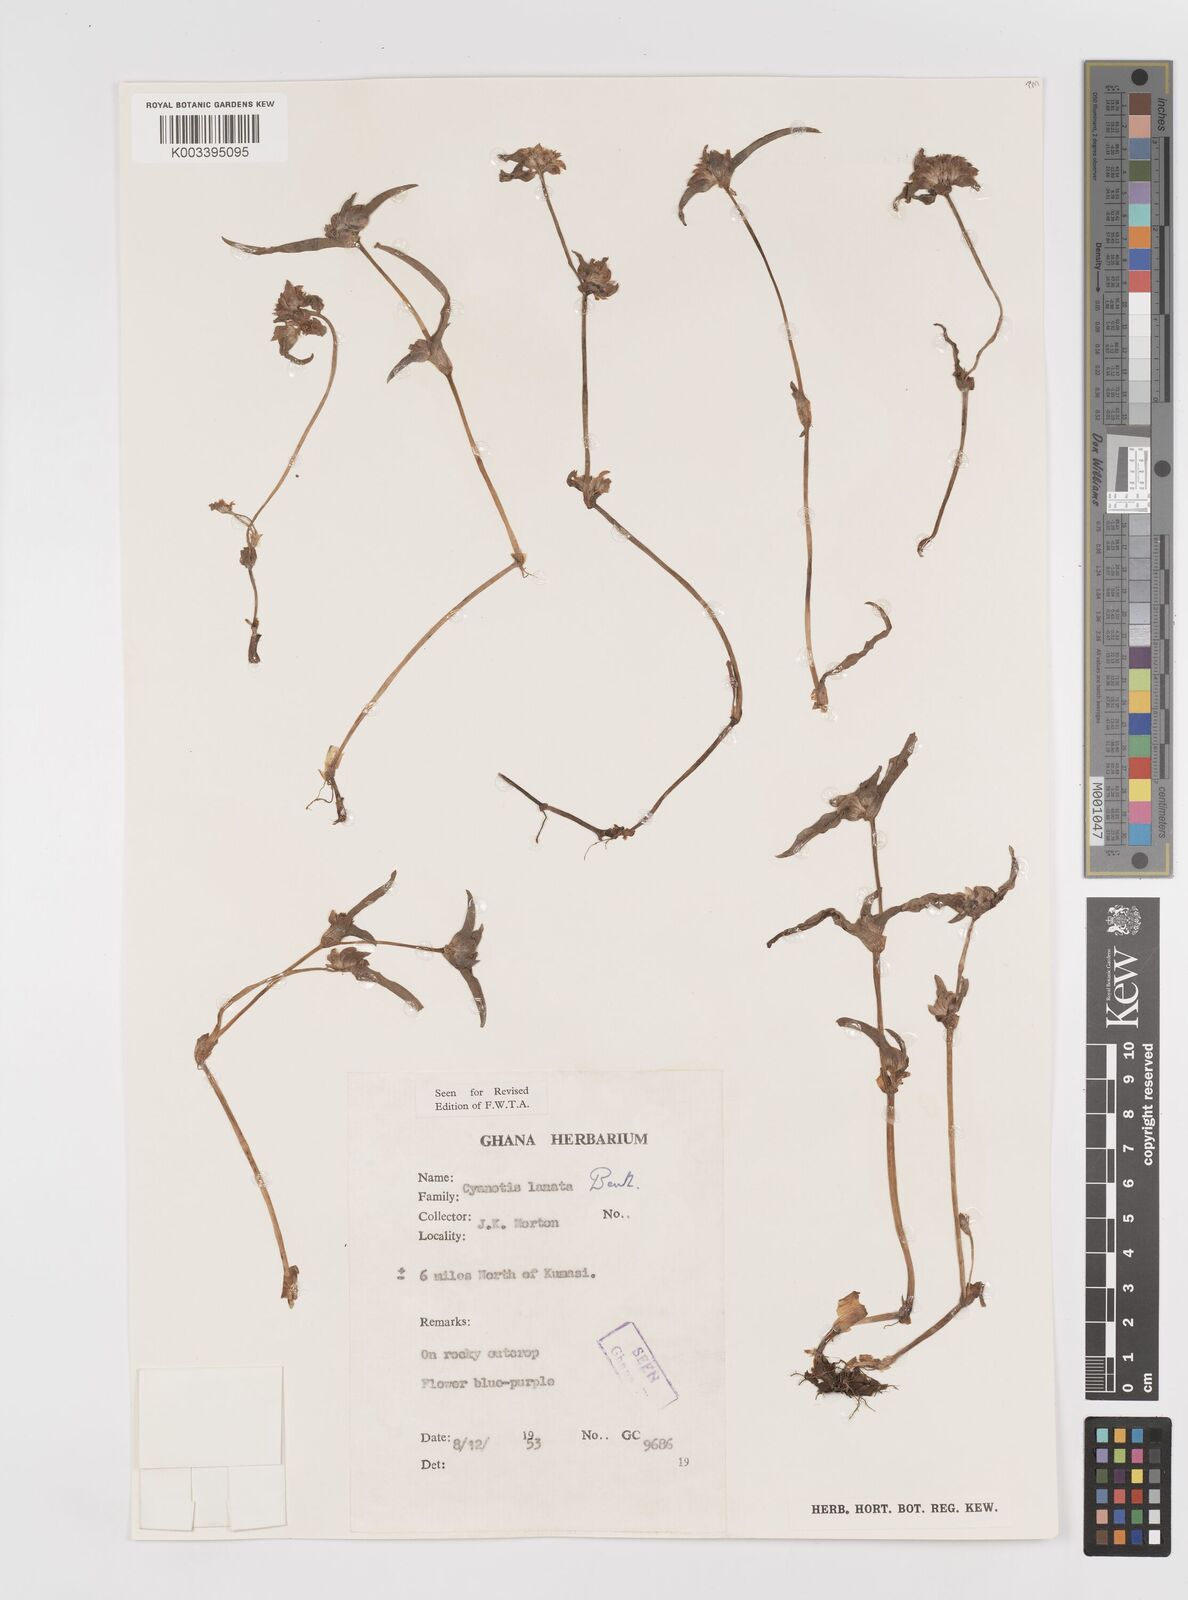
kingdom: Plantae
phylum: Tracheophyta
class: Liliopsida
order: Commelinales
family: Commelinaceae
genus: Cyanotis
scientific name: Cyanotis lanata
